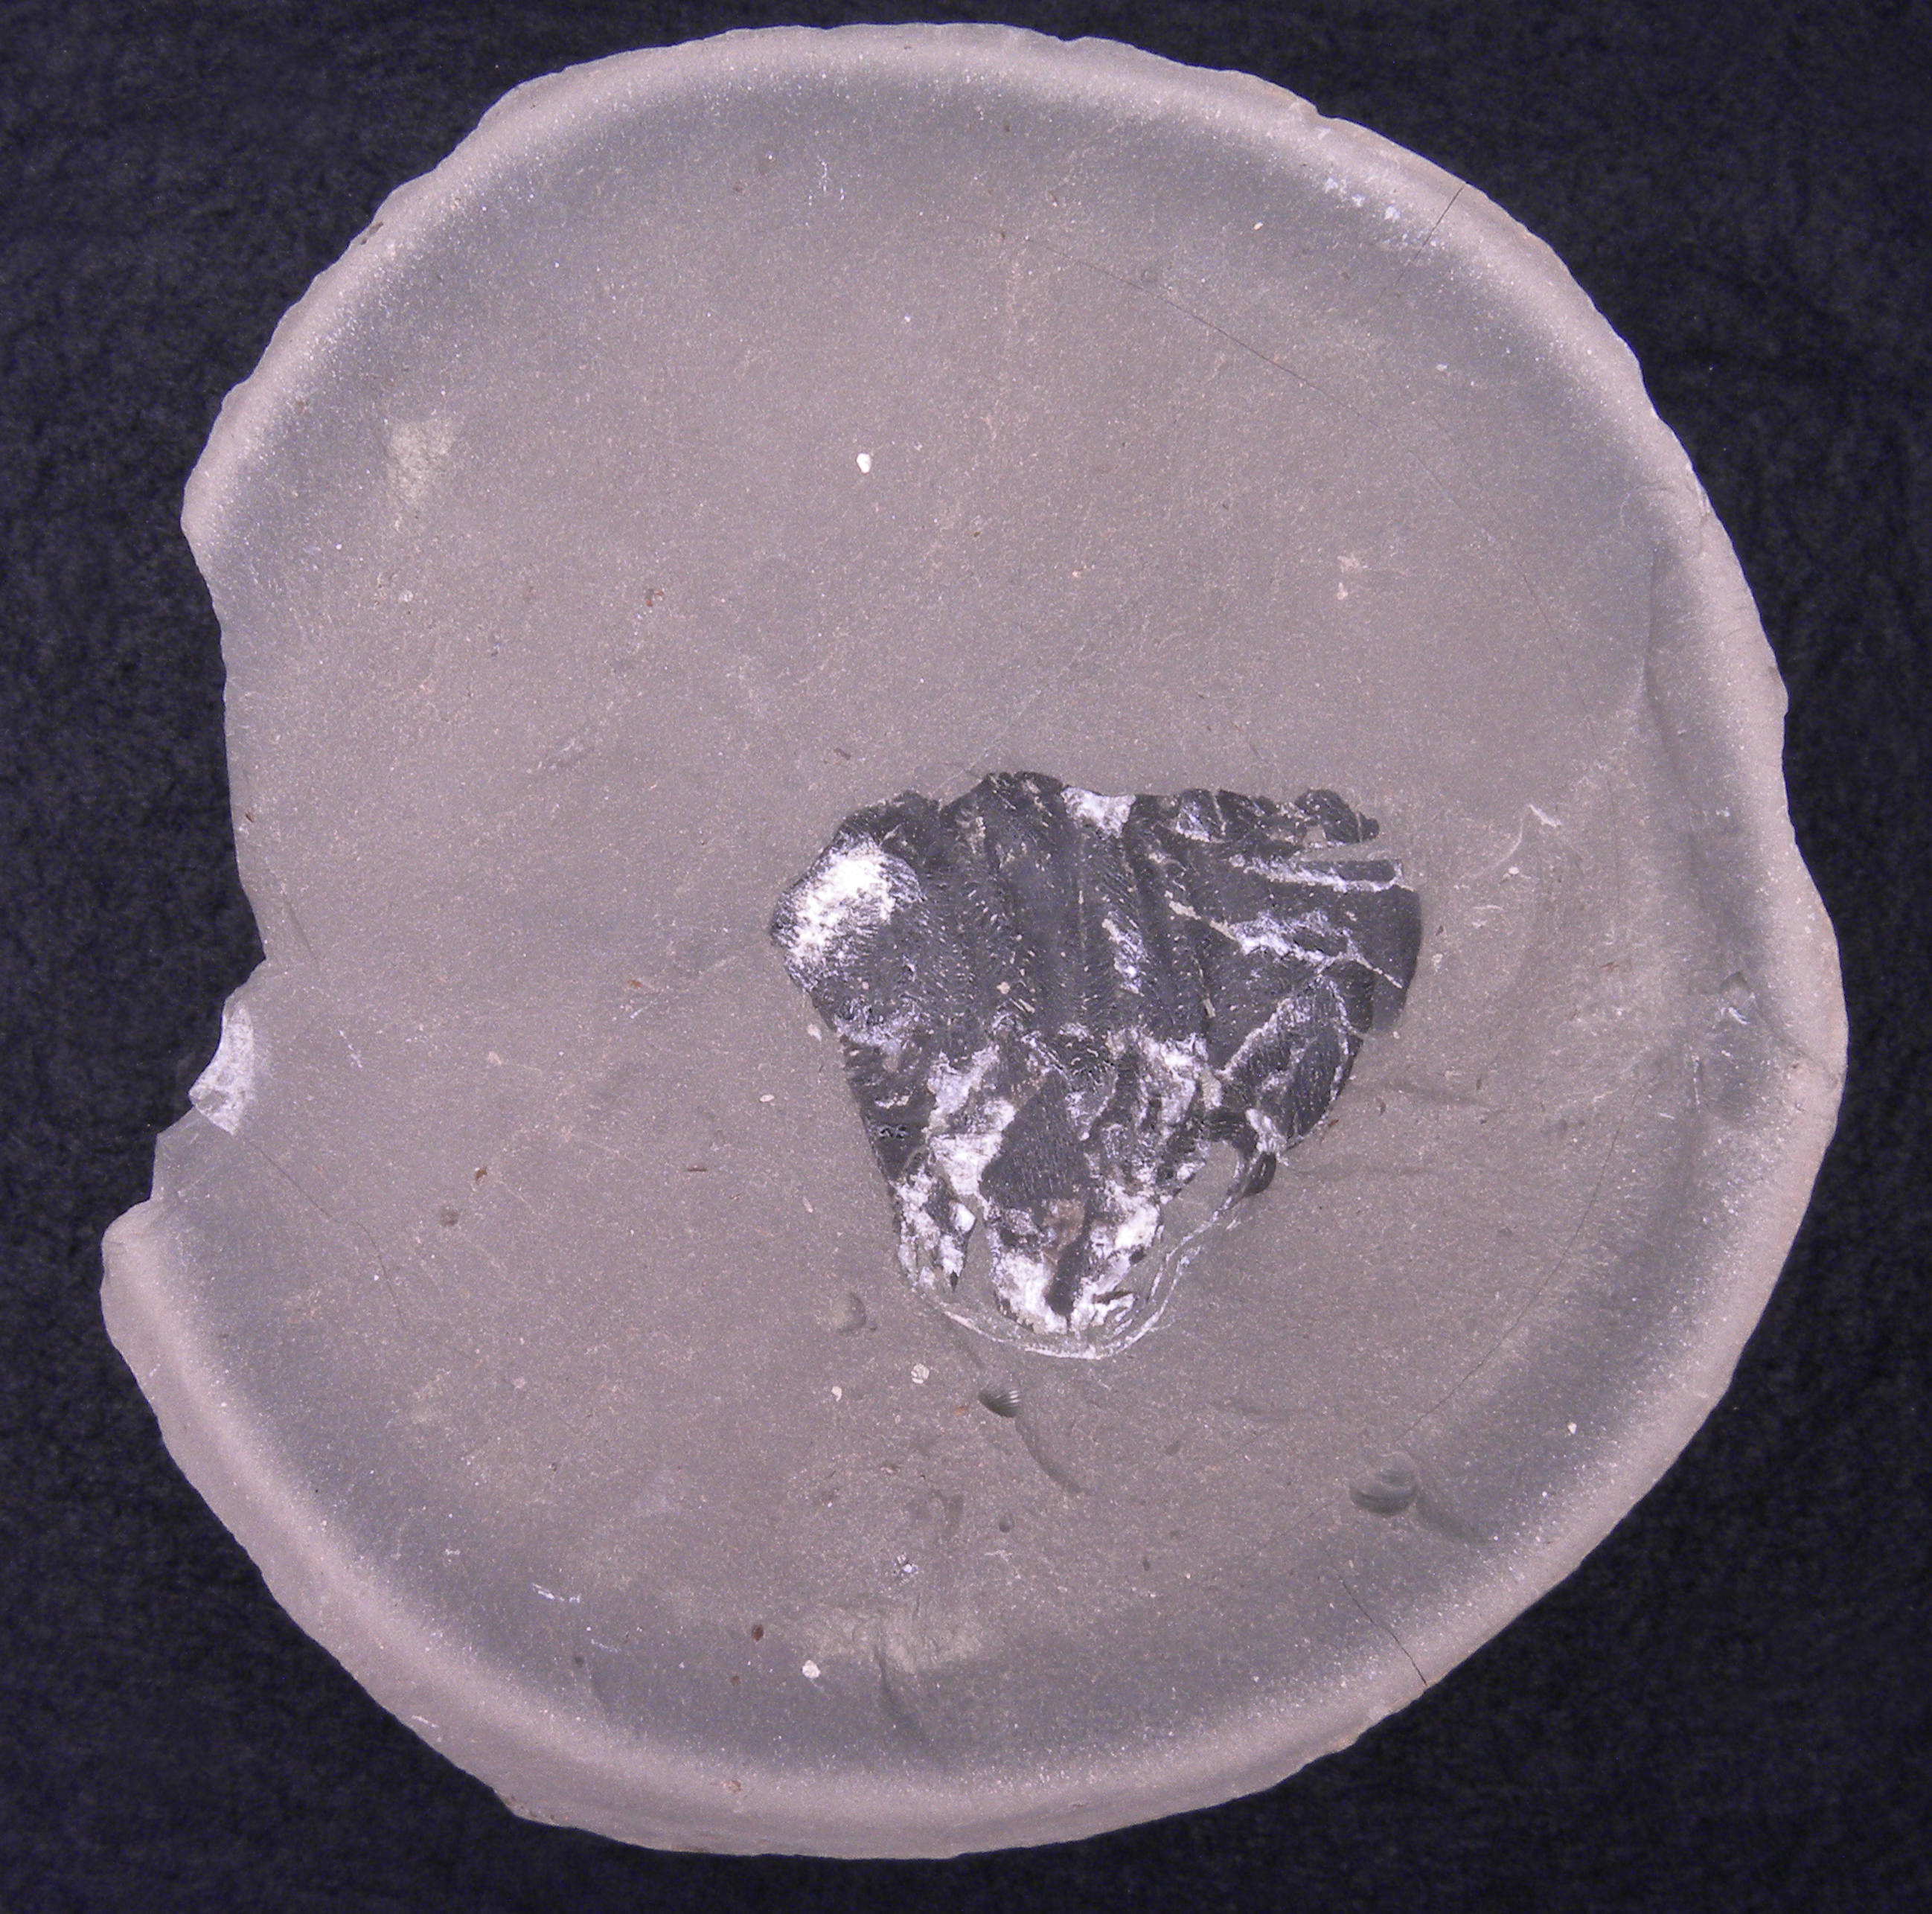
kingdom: Animalia
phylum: Mollusca
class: Cephalopoda
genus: Anaptychus
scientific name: Anaptychus
